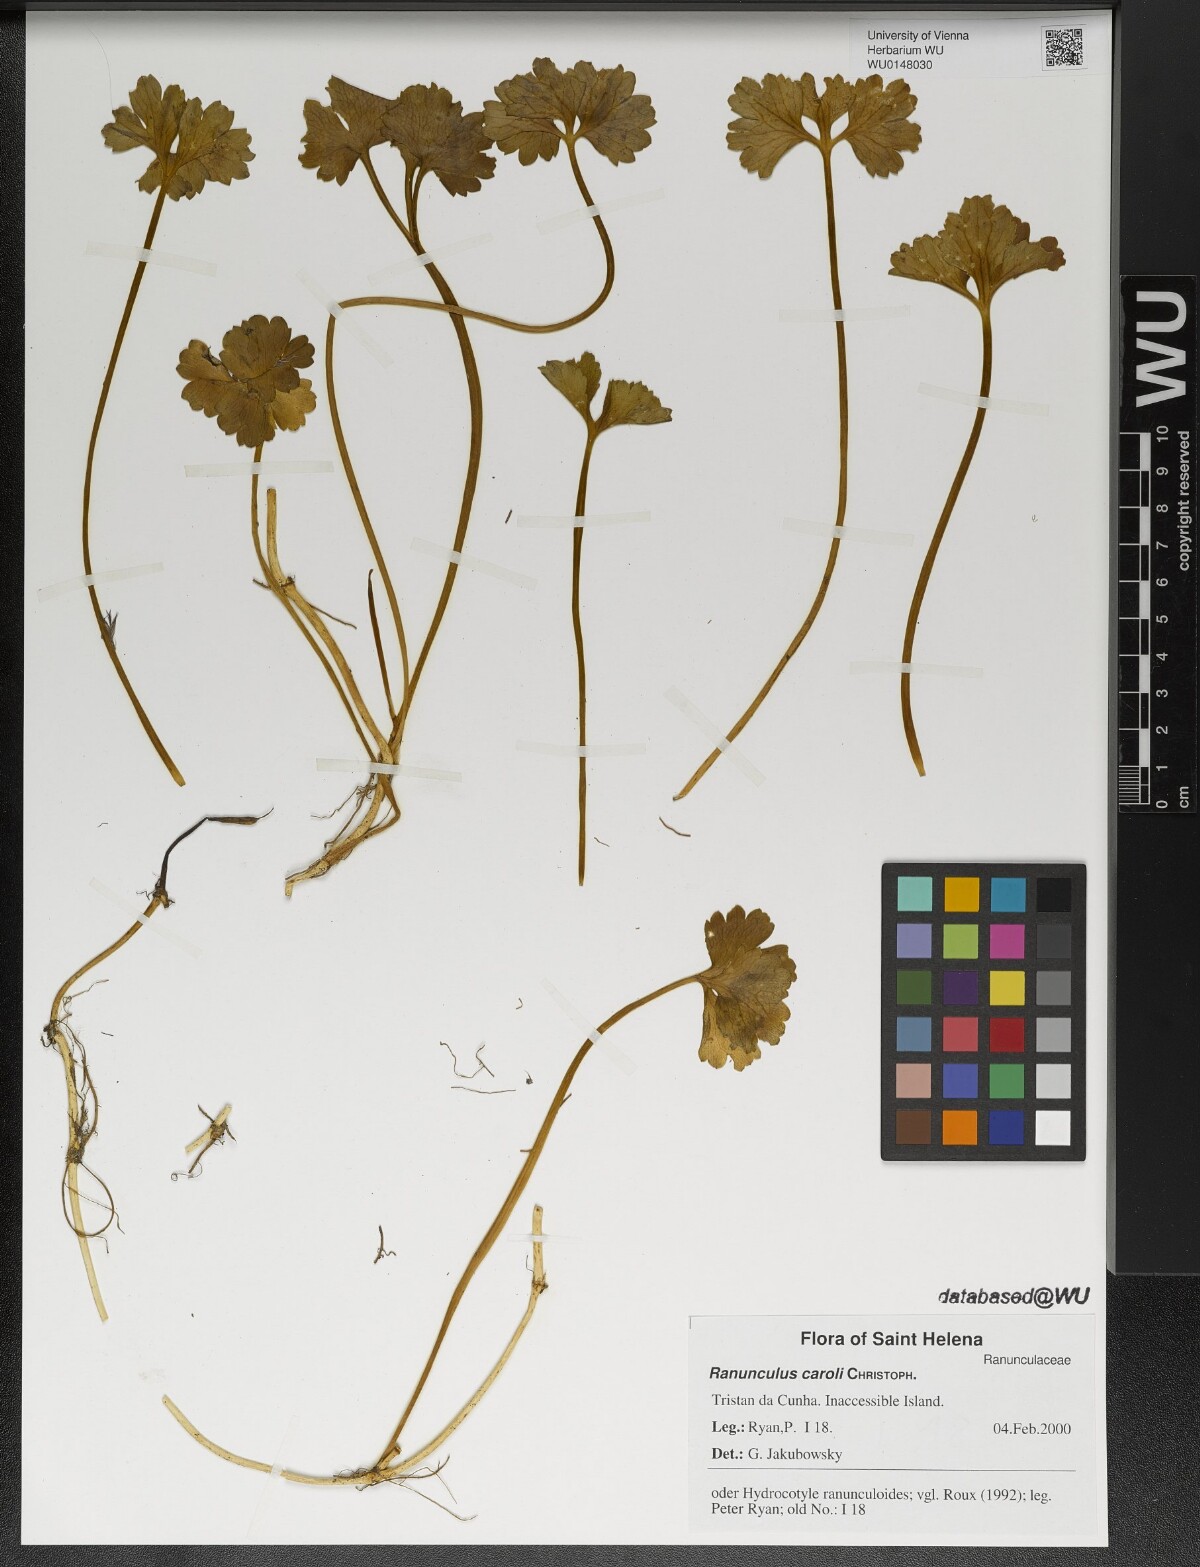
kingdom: Plantae
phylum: Tracheophyta
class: Magnoliopsida
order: Ranunculales
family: Ranunculaceae
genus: Ranunculus
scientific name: Ranunculus caroli
